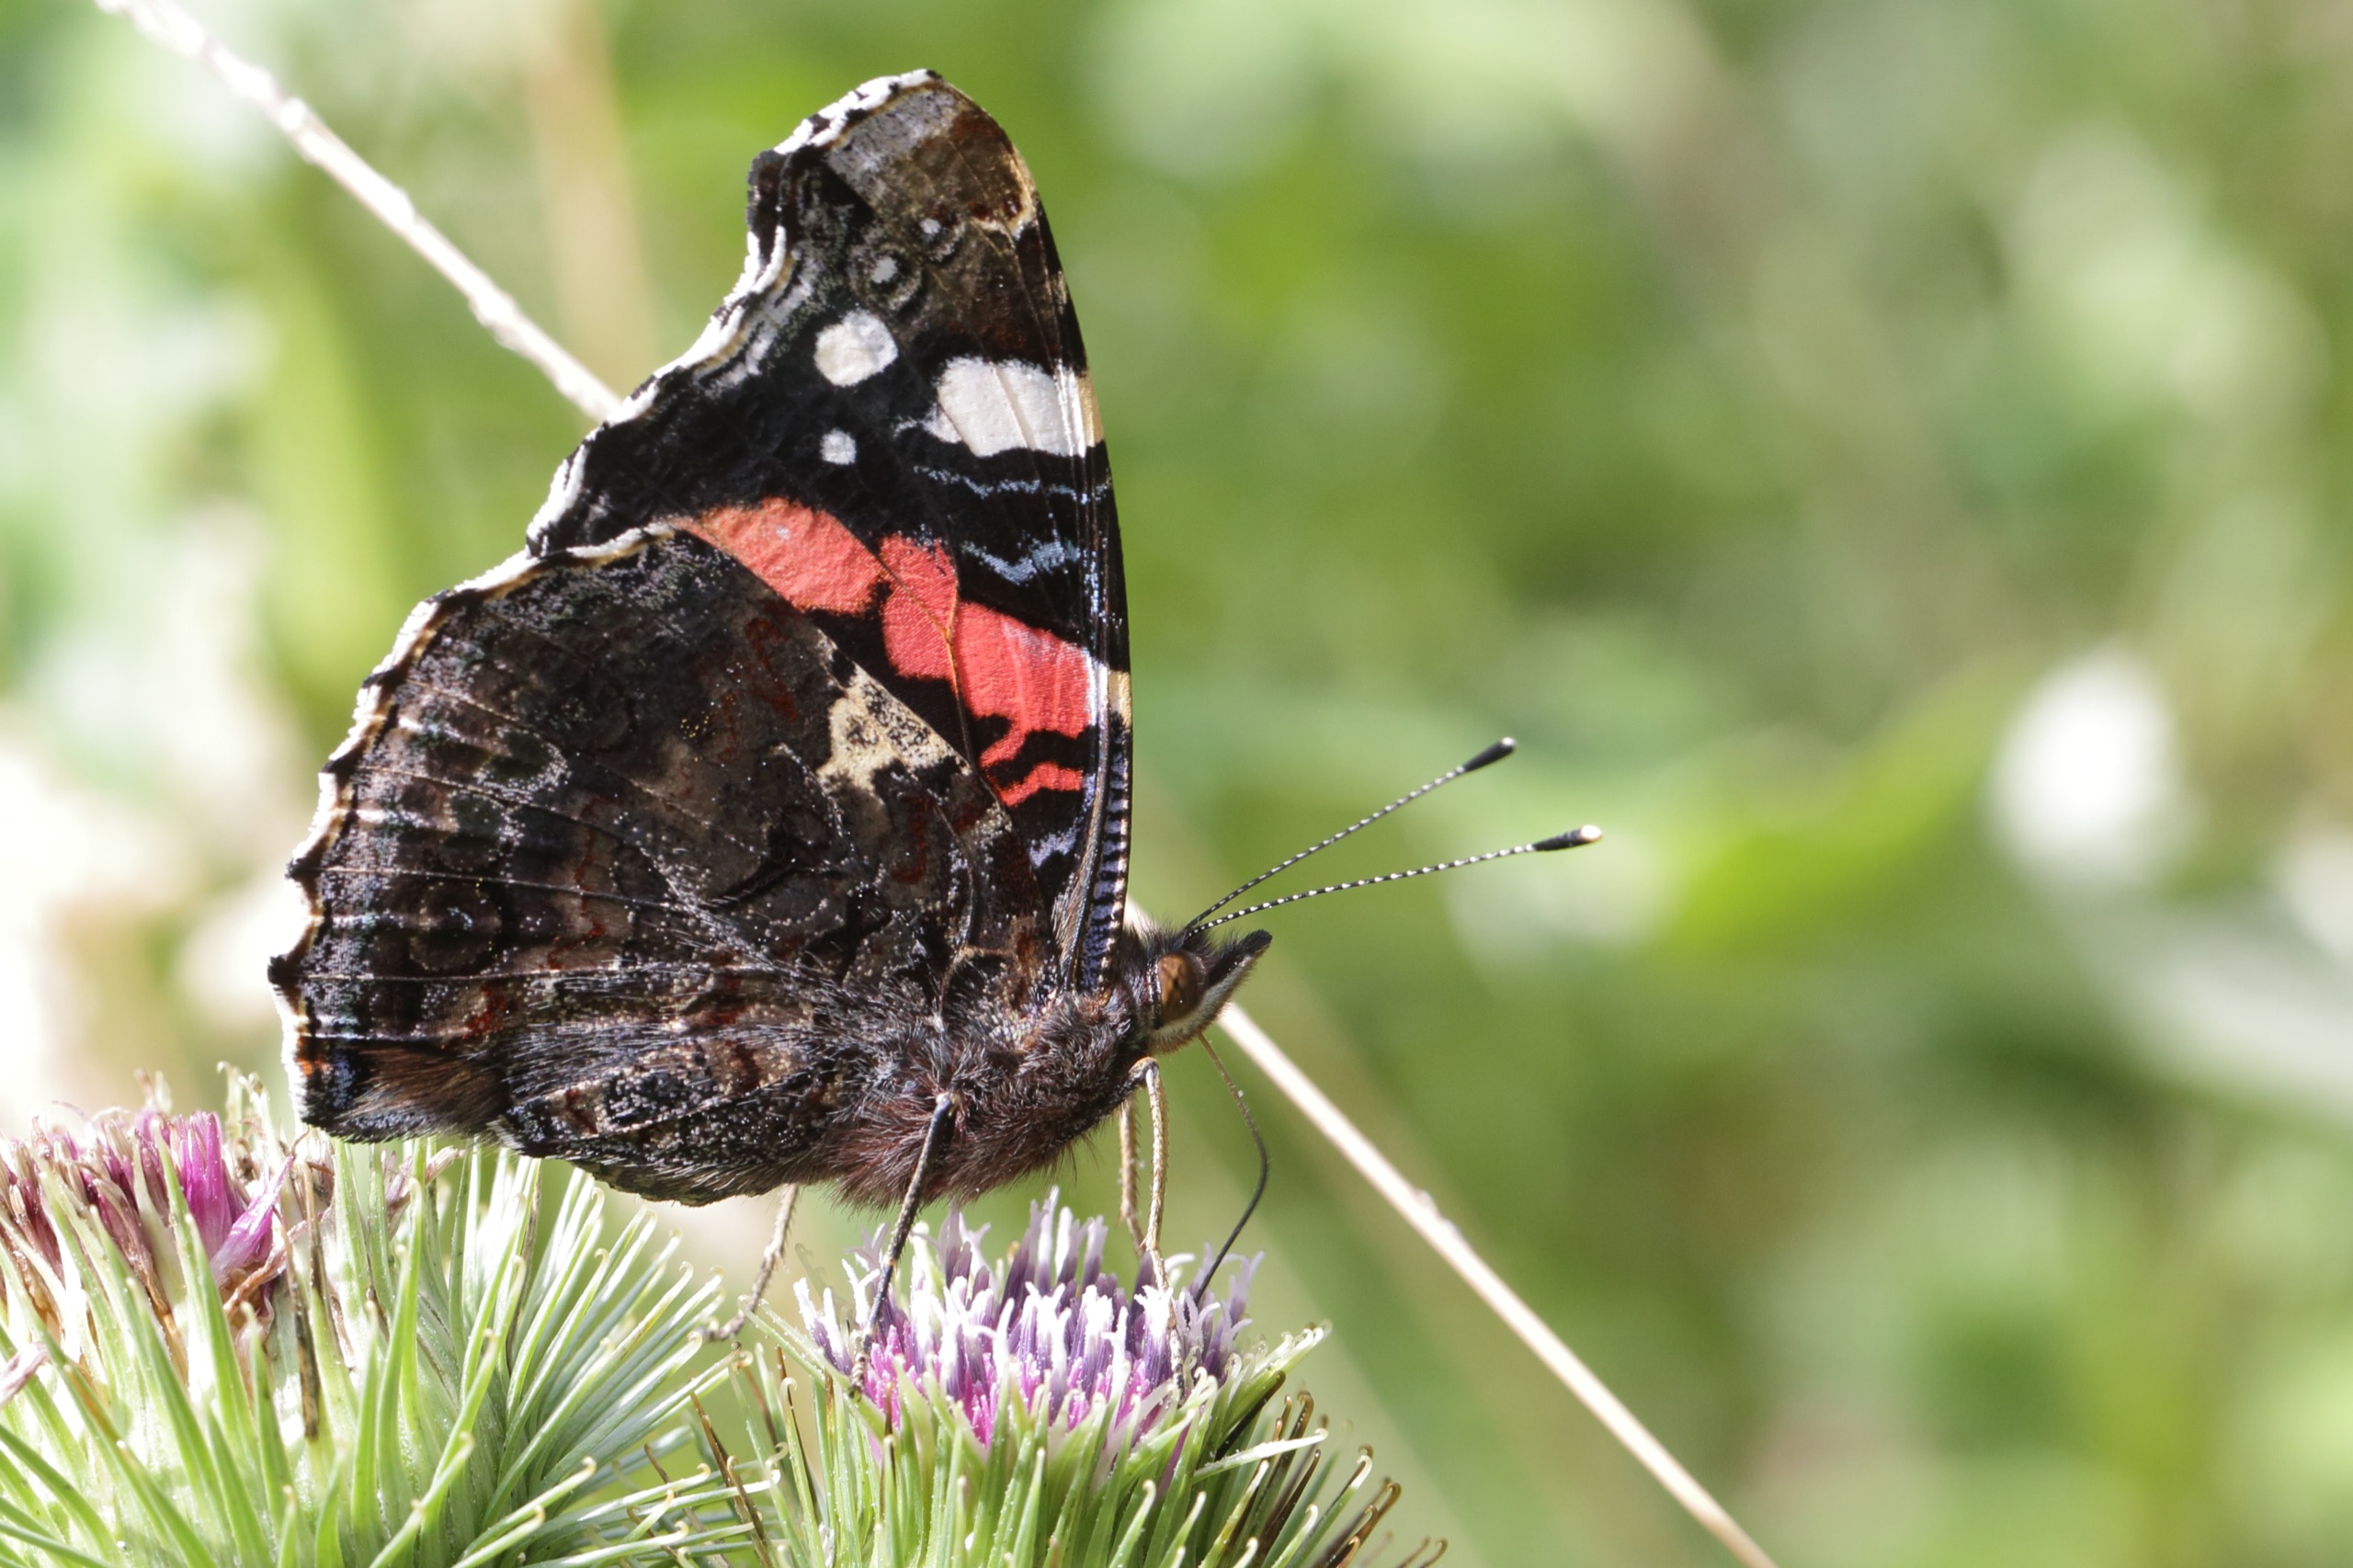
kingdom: Animalia
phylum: Arthropoda
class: Insecta
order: Lepidoptera
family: Nymphalidae
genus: Vanessa
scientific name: Vanessa atalanta
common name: Admiral
